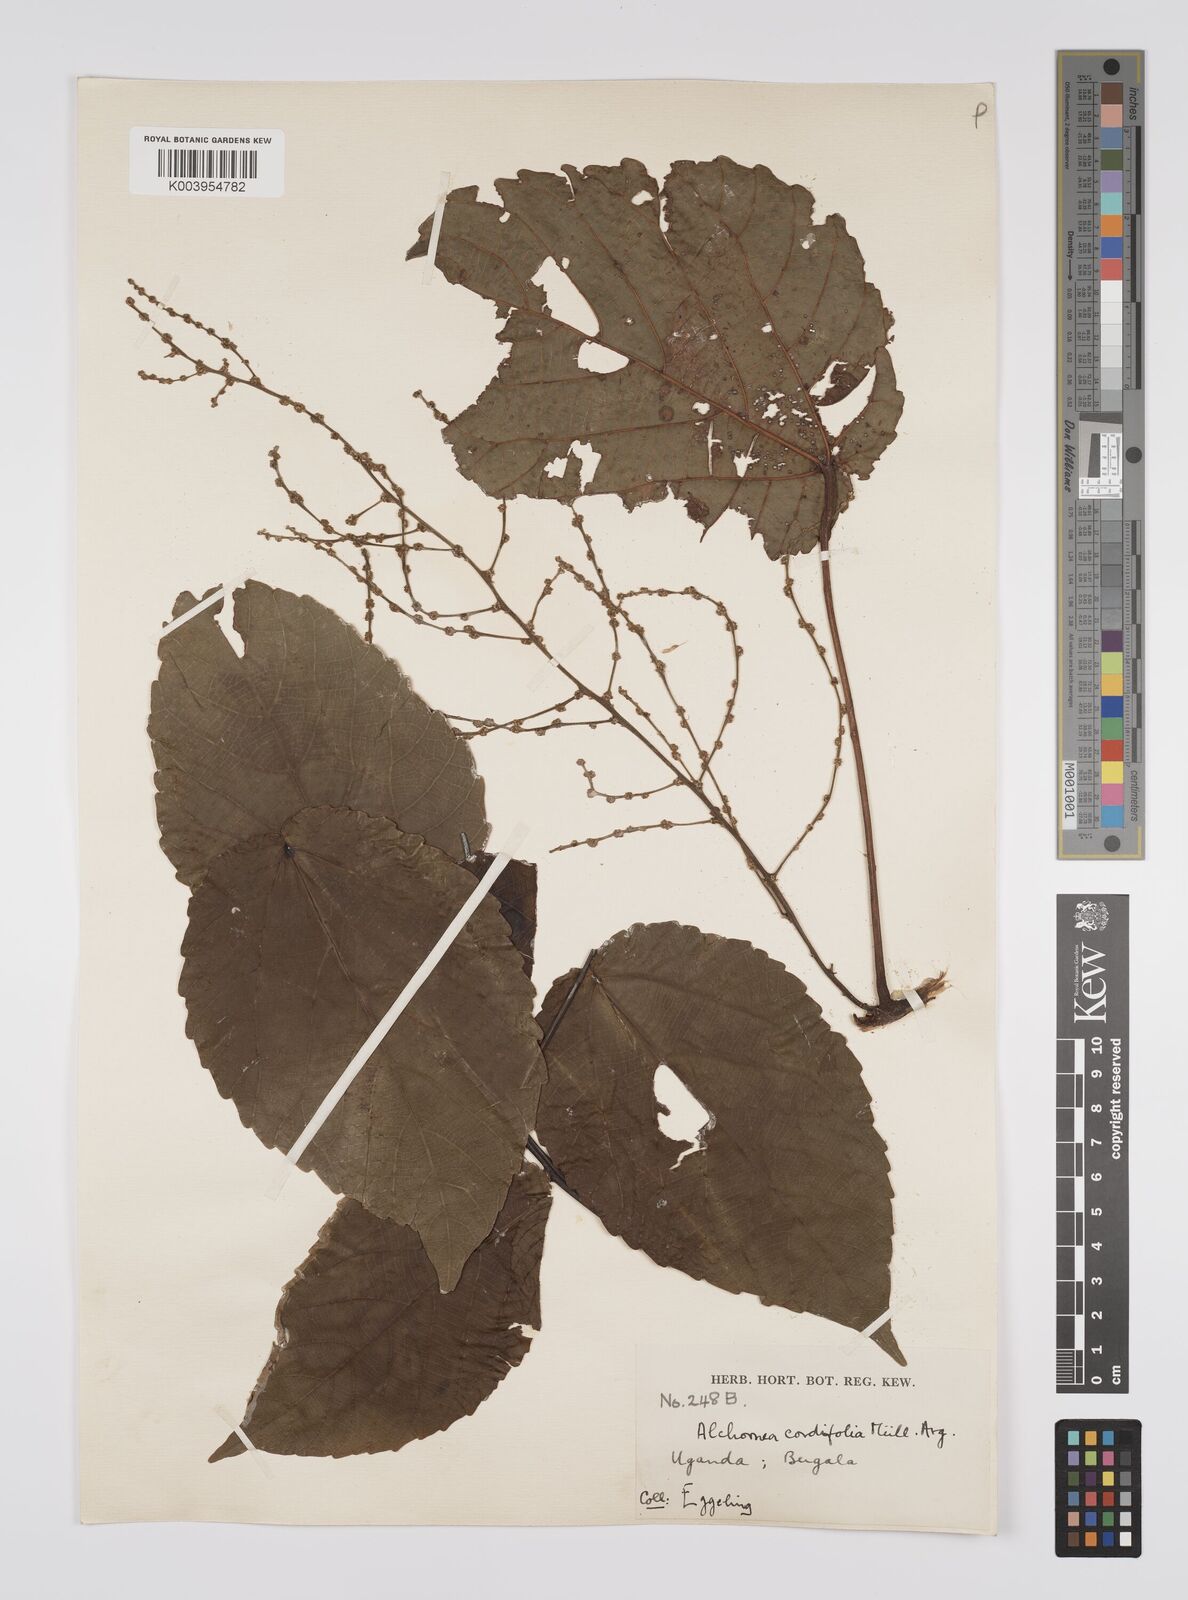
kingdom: Plantae
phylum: Tracheophyta
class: Magnoliopsida
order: Malpighiales
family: Euphorbiaceae
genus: Alchornea
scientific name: Alchornea cordifolia
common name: Christmasbush
